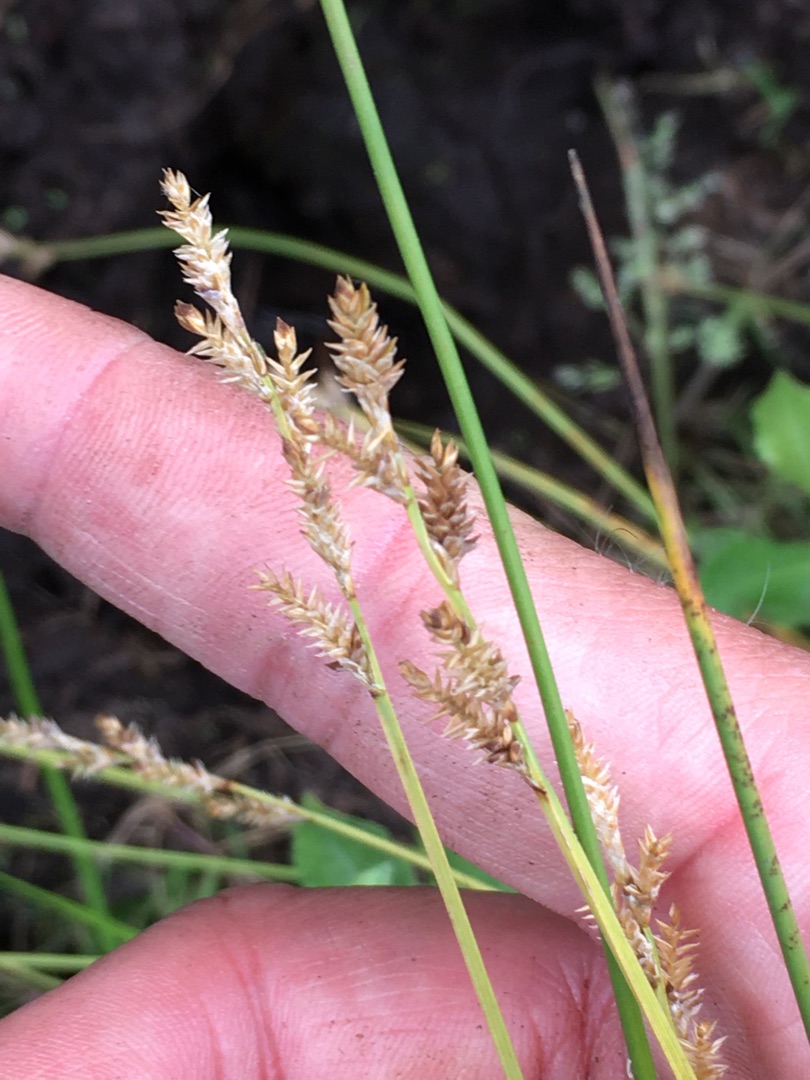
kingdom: Plantae
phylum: Tracheophyta
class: Liliopsida
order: Poales
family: Cyperaceae
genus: Carex
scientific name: Carex canescens
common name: Grå star
